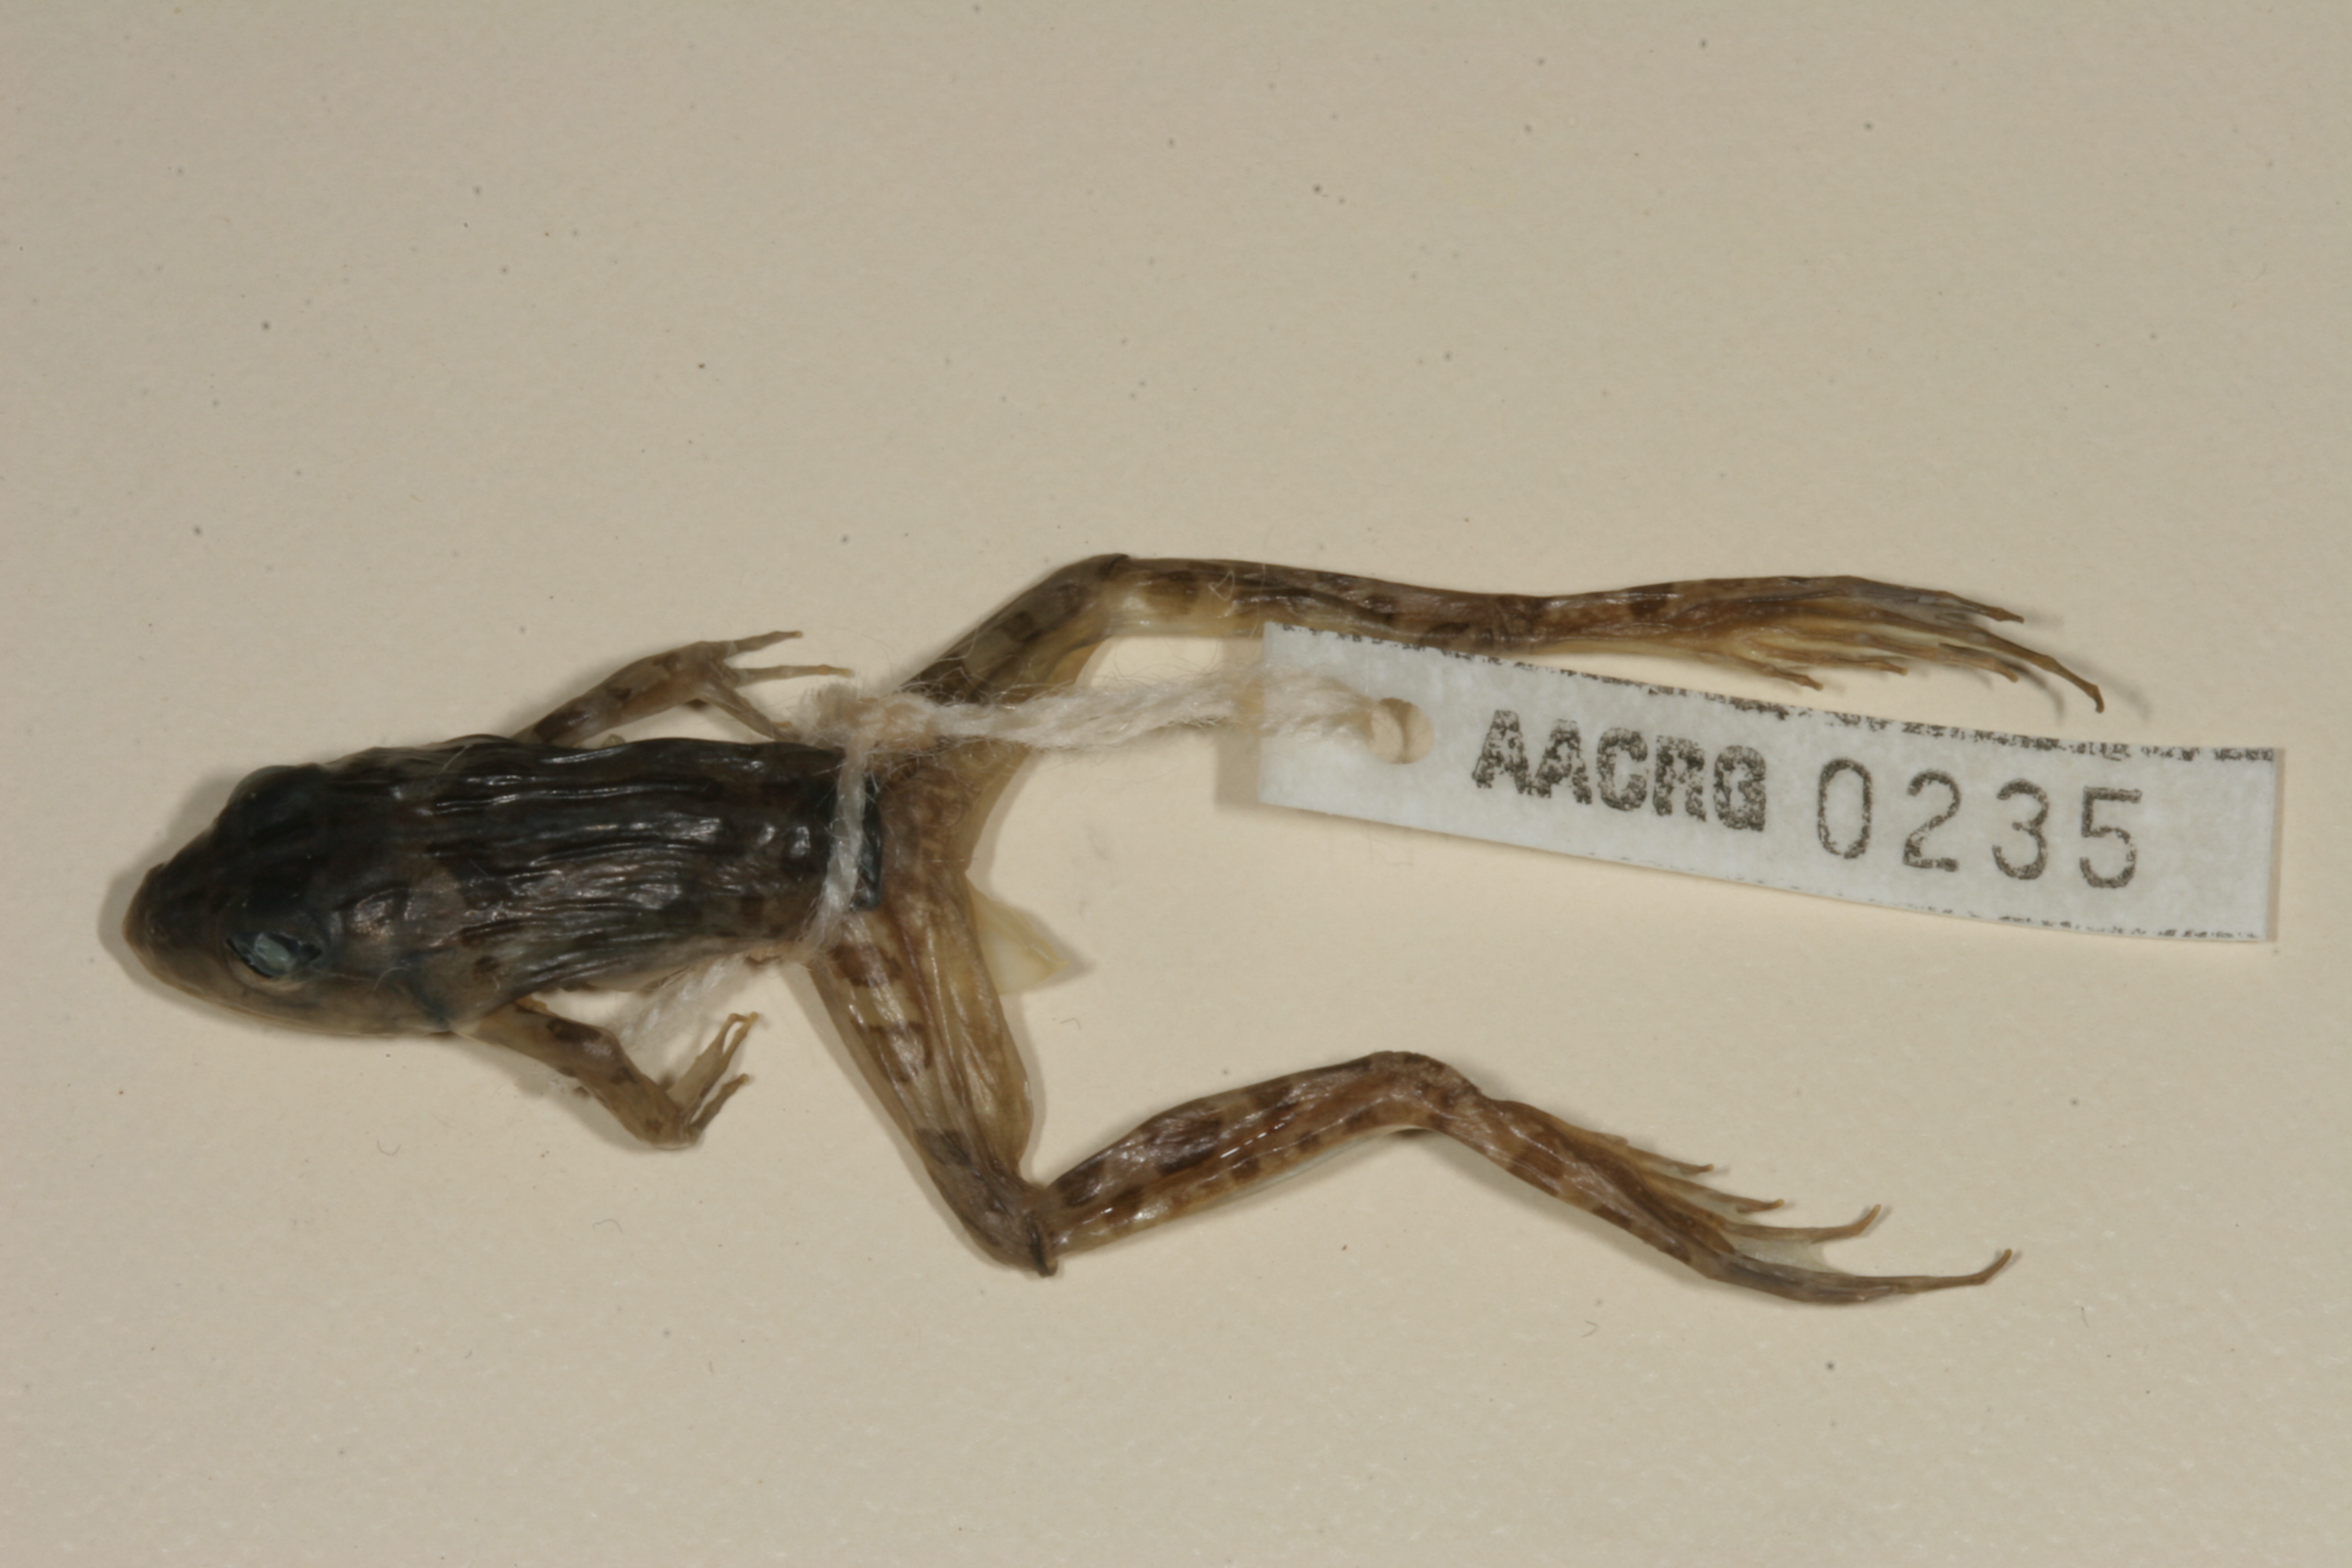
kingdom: Animalia
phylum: Chordata
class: Amphibia
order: Anura
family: Pyxicephalidae
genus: Amietia
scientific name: Amietia angolensis
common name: Dusky-throated frog
